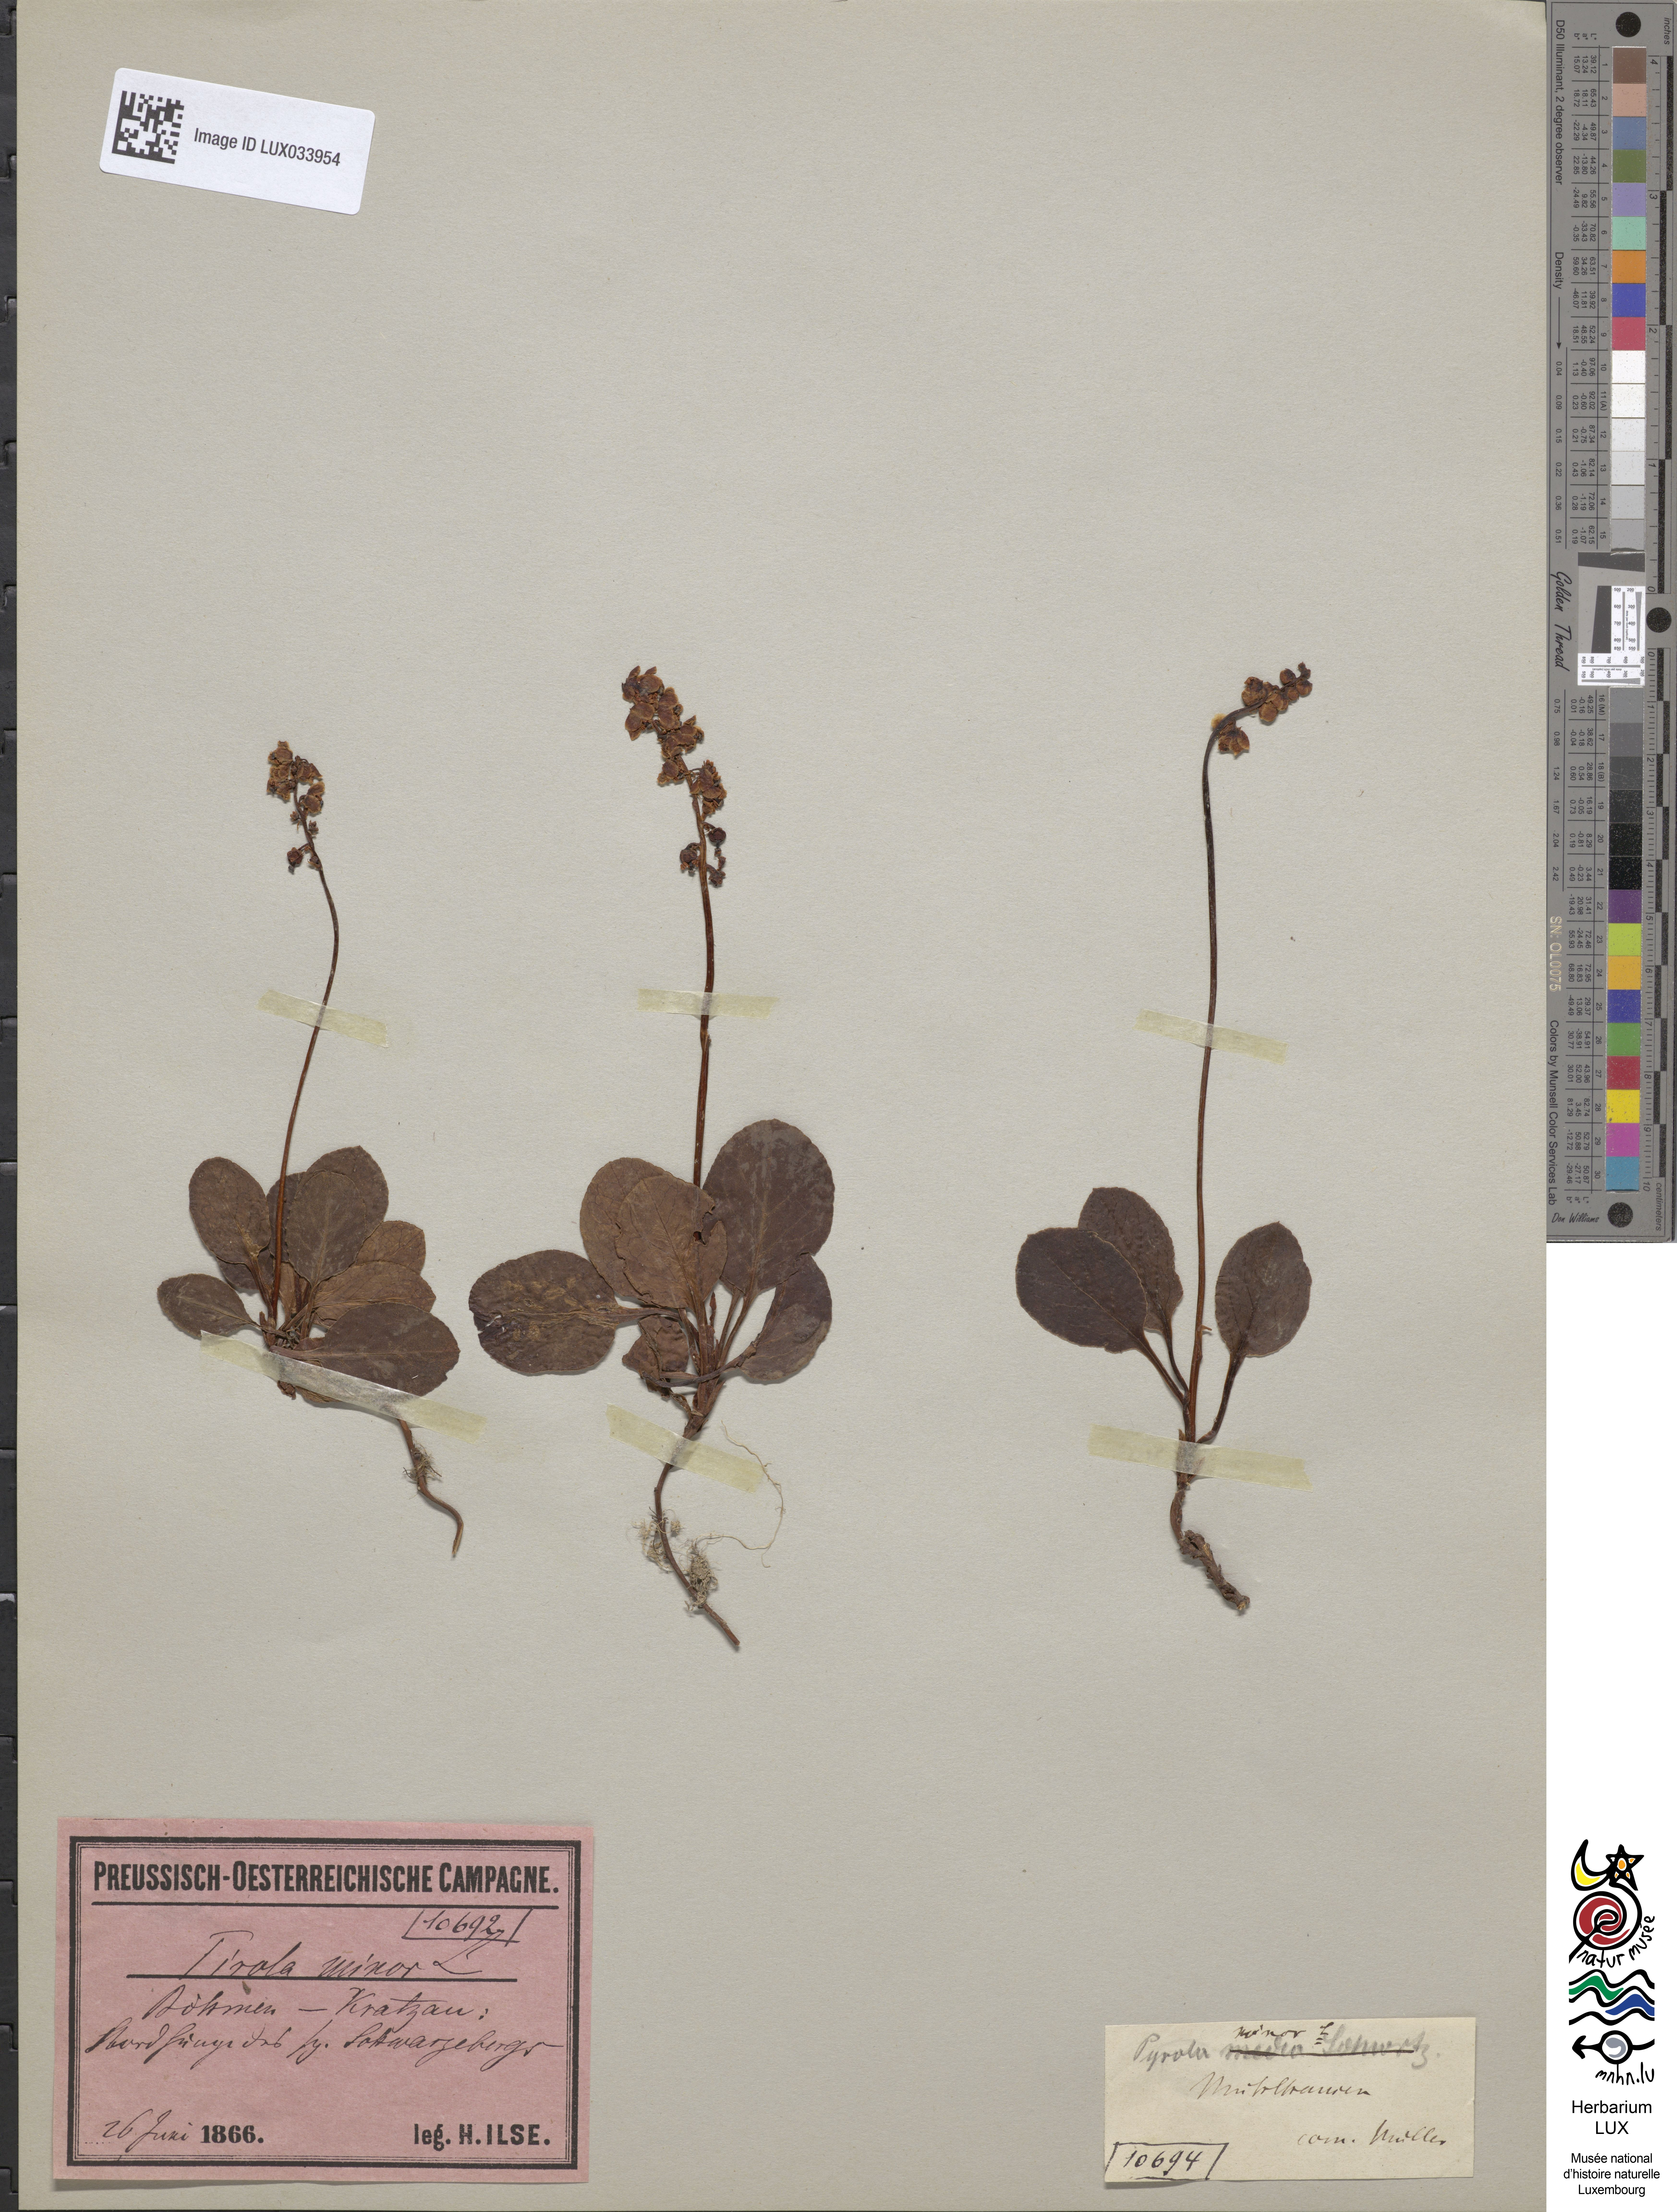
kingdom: Plantae
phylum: Tracheophyta
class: Magnoliopsida
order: Ericales
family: Ericaceae
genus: Pyrola
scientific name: Pyrola minor
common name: Common wintergreen
